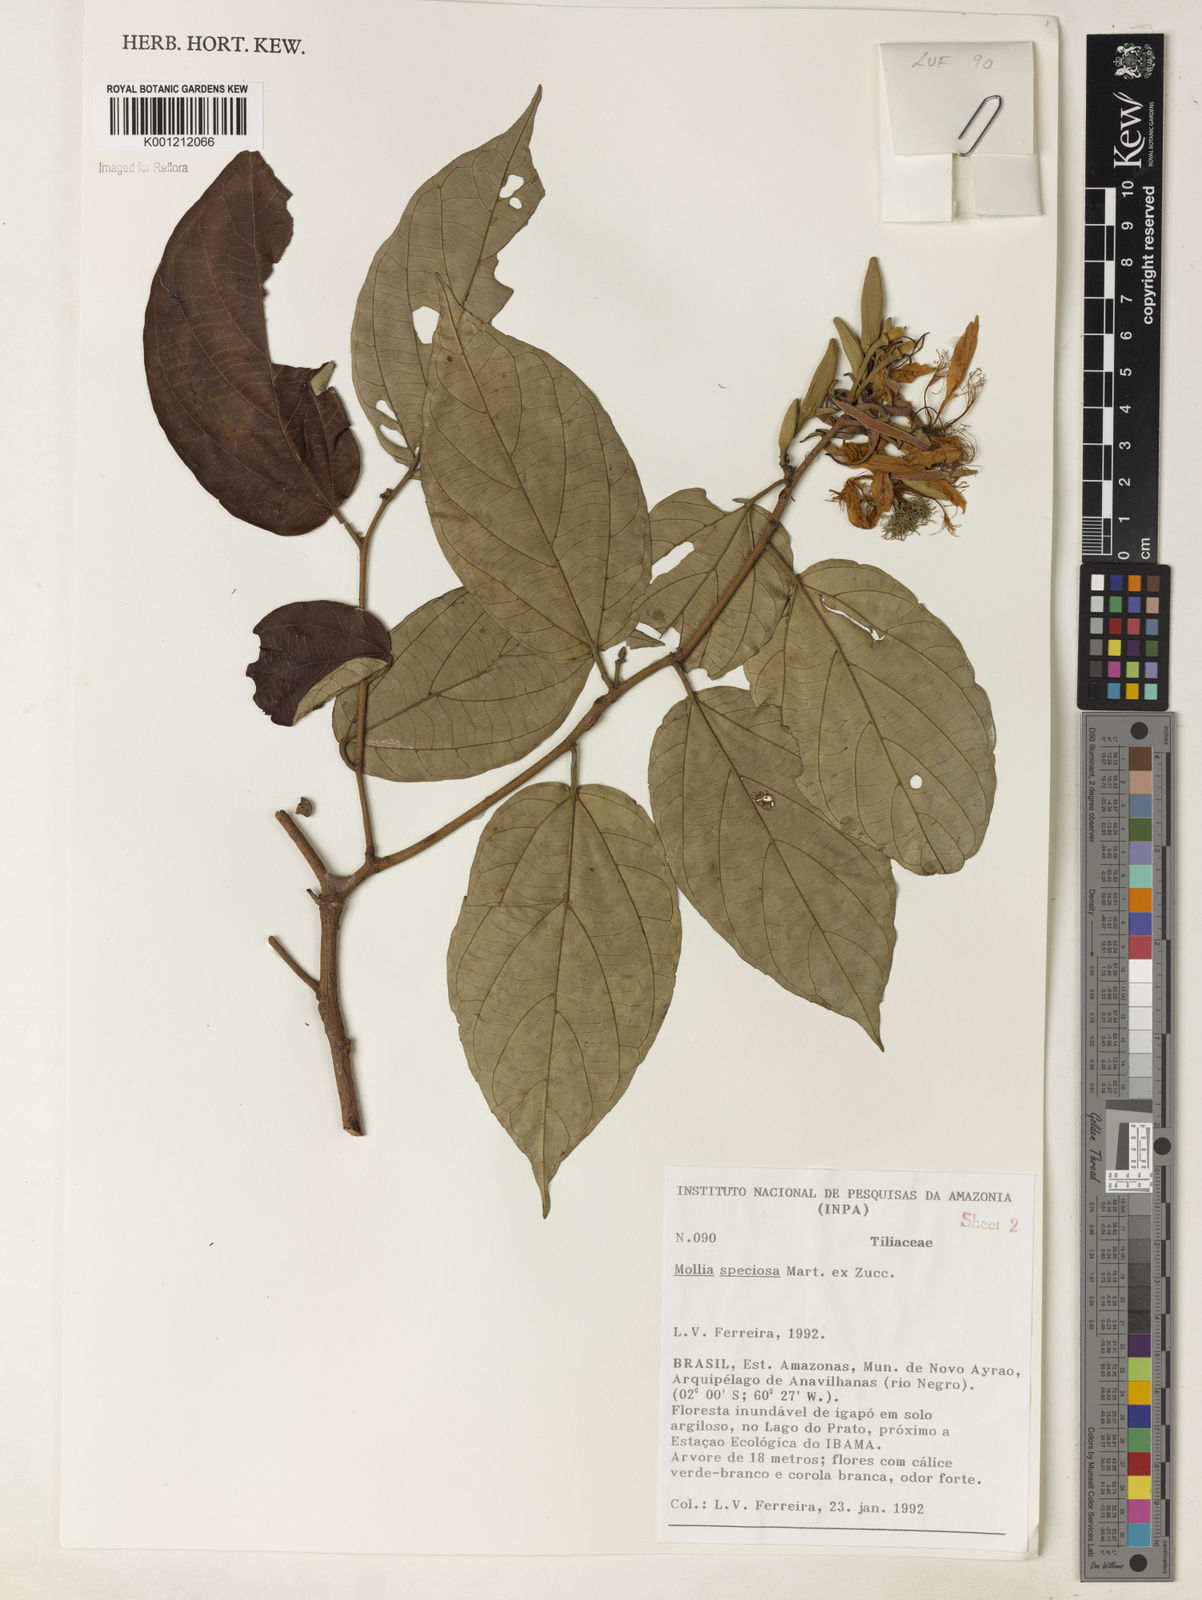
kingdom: Plantae
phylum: Tracheophyta
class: Magnoliopsida
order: Malvales
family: Malvaceae
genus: Mollia
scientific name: Mollia speciosa
